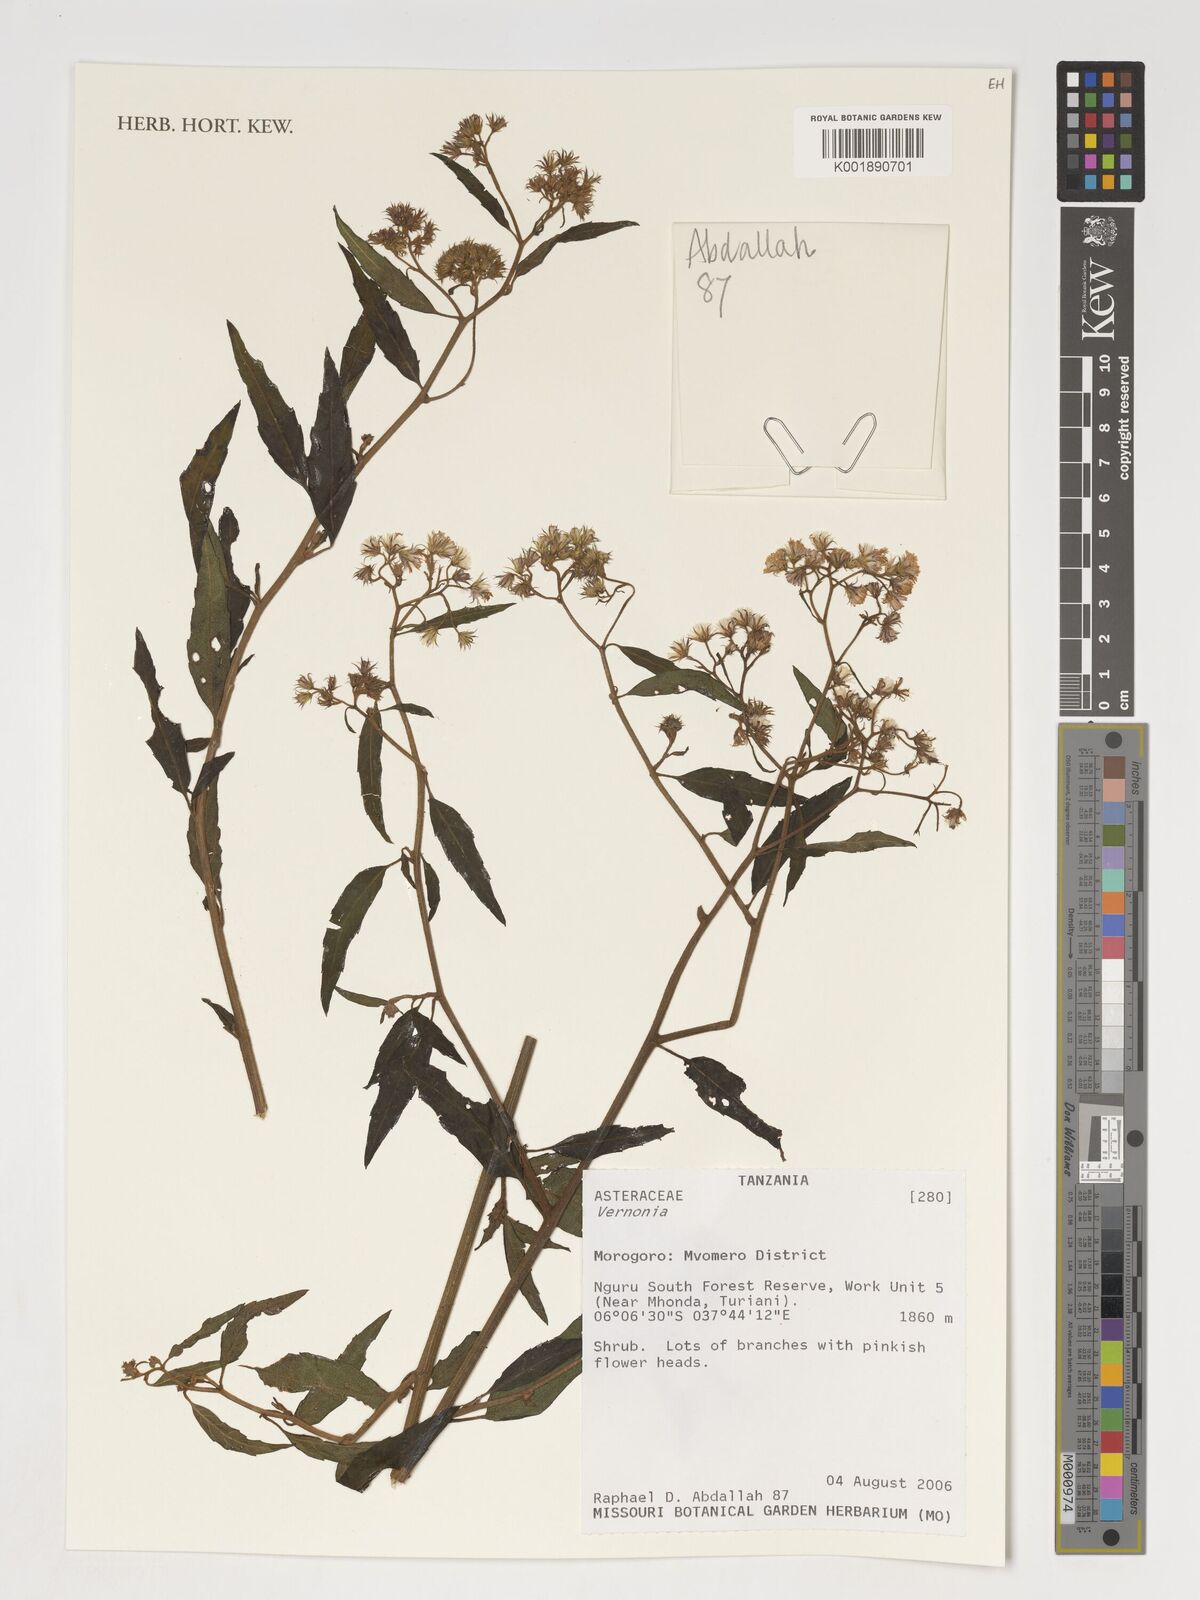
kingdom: Plantae
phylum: Tracheophyta
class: Magnoliopsida
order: Asterales
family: Asteraceae
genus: Vernonia
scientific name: Vernonia
